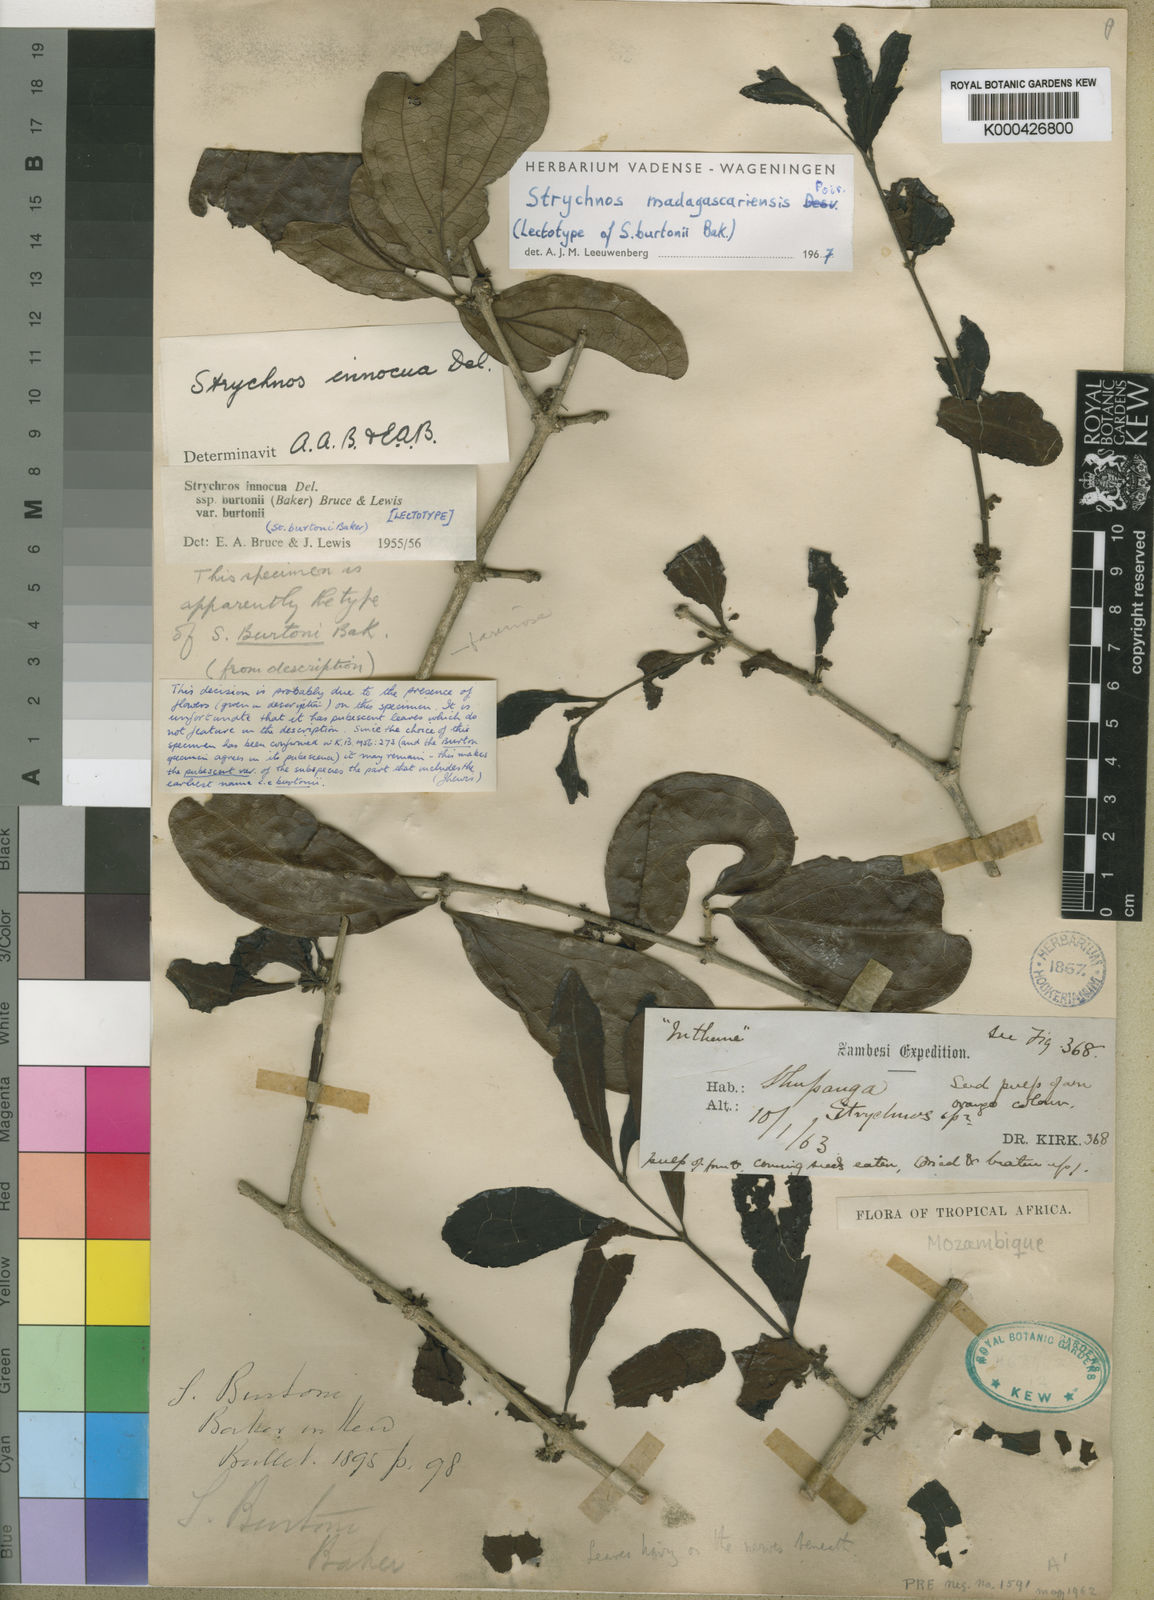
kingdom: Plantae
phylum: Tracheophyta
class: Magnoliopsida
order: Gentianales
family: Loganiaceae
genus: Strychnos
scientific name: Strychnos madagascariensis
